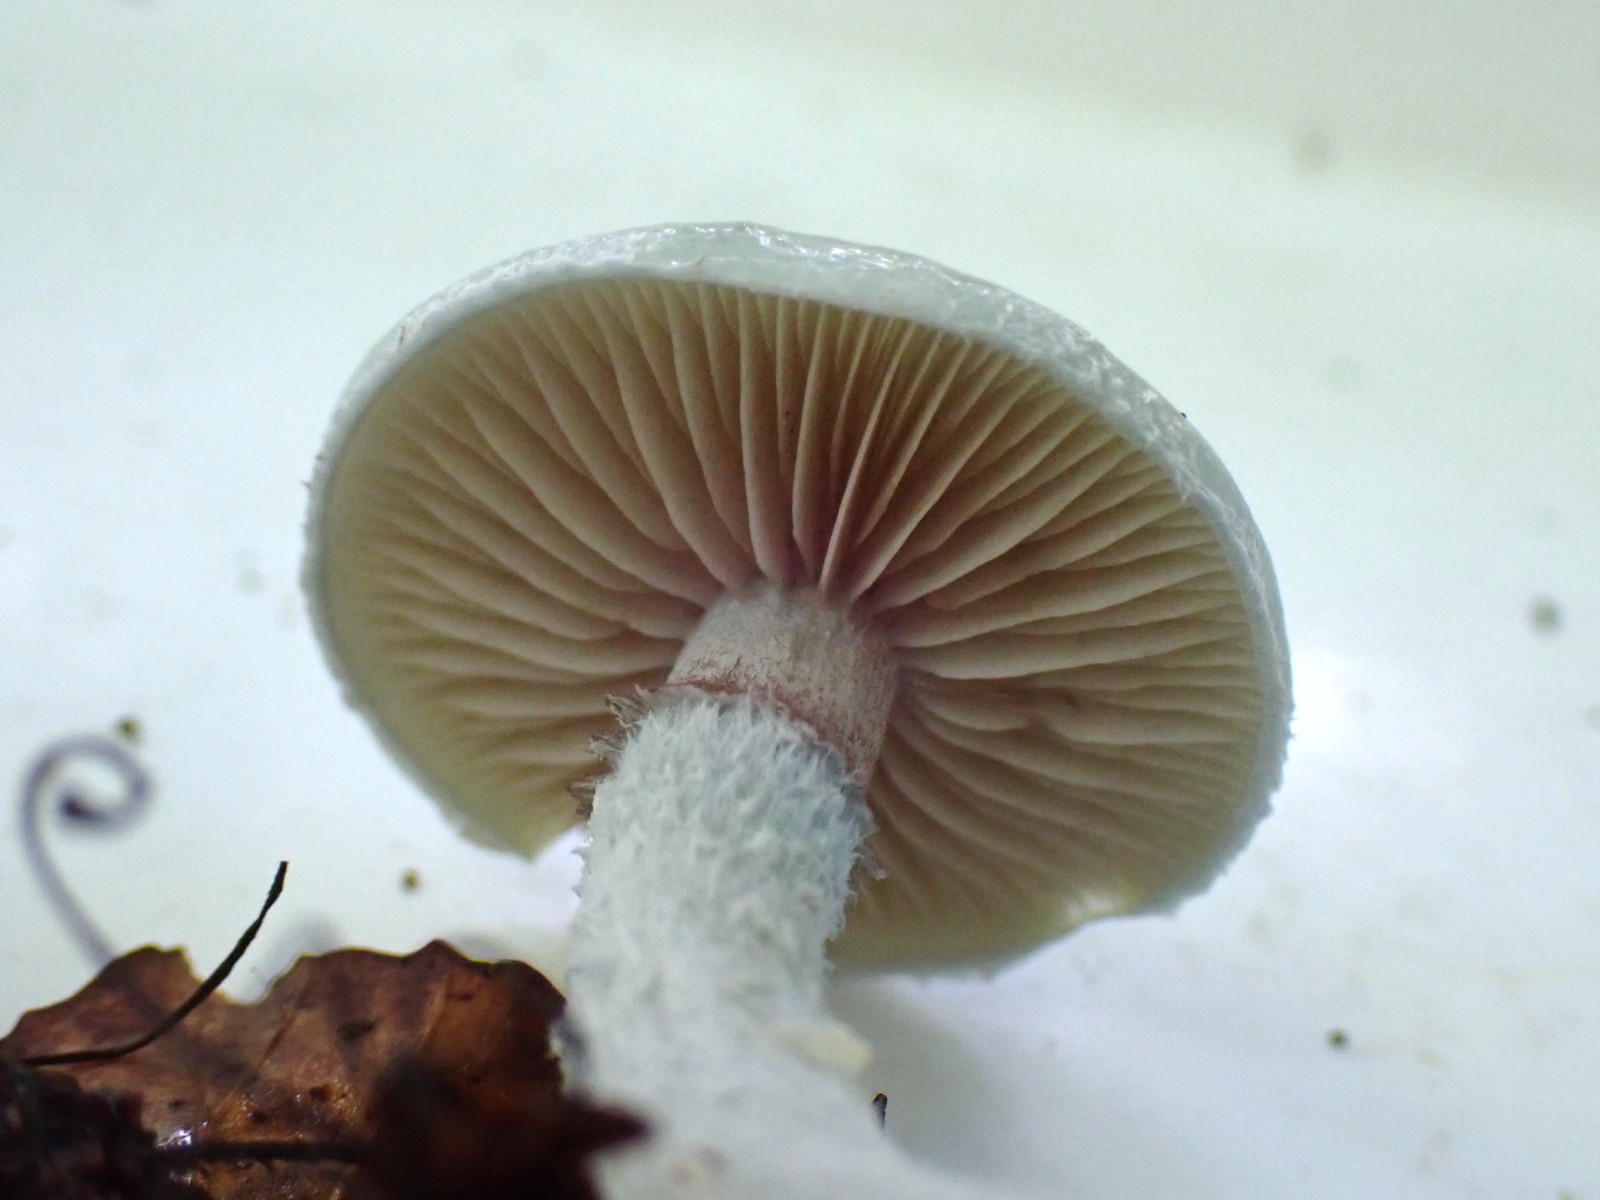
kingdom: Fungi
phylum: Basidiomycota
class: Agaricomycetes
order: Agaricales
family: Strophariaceae
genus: Stropharia
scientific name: Stropharia cyanea
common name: blågrøn bredblad
